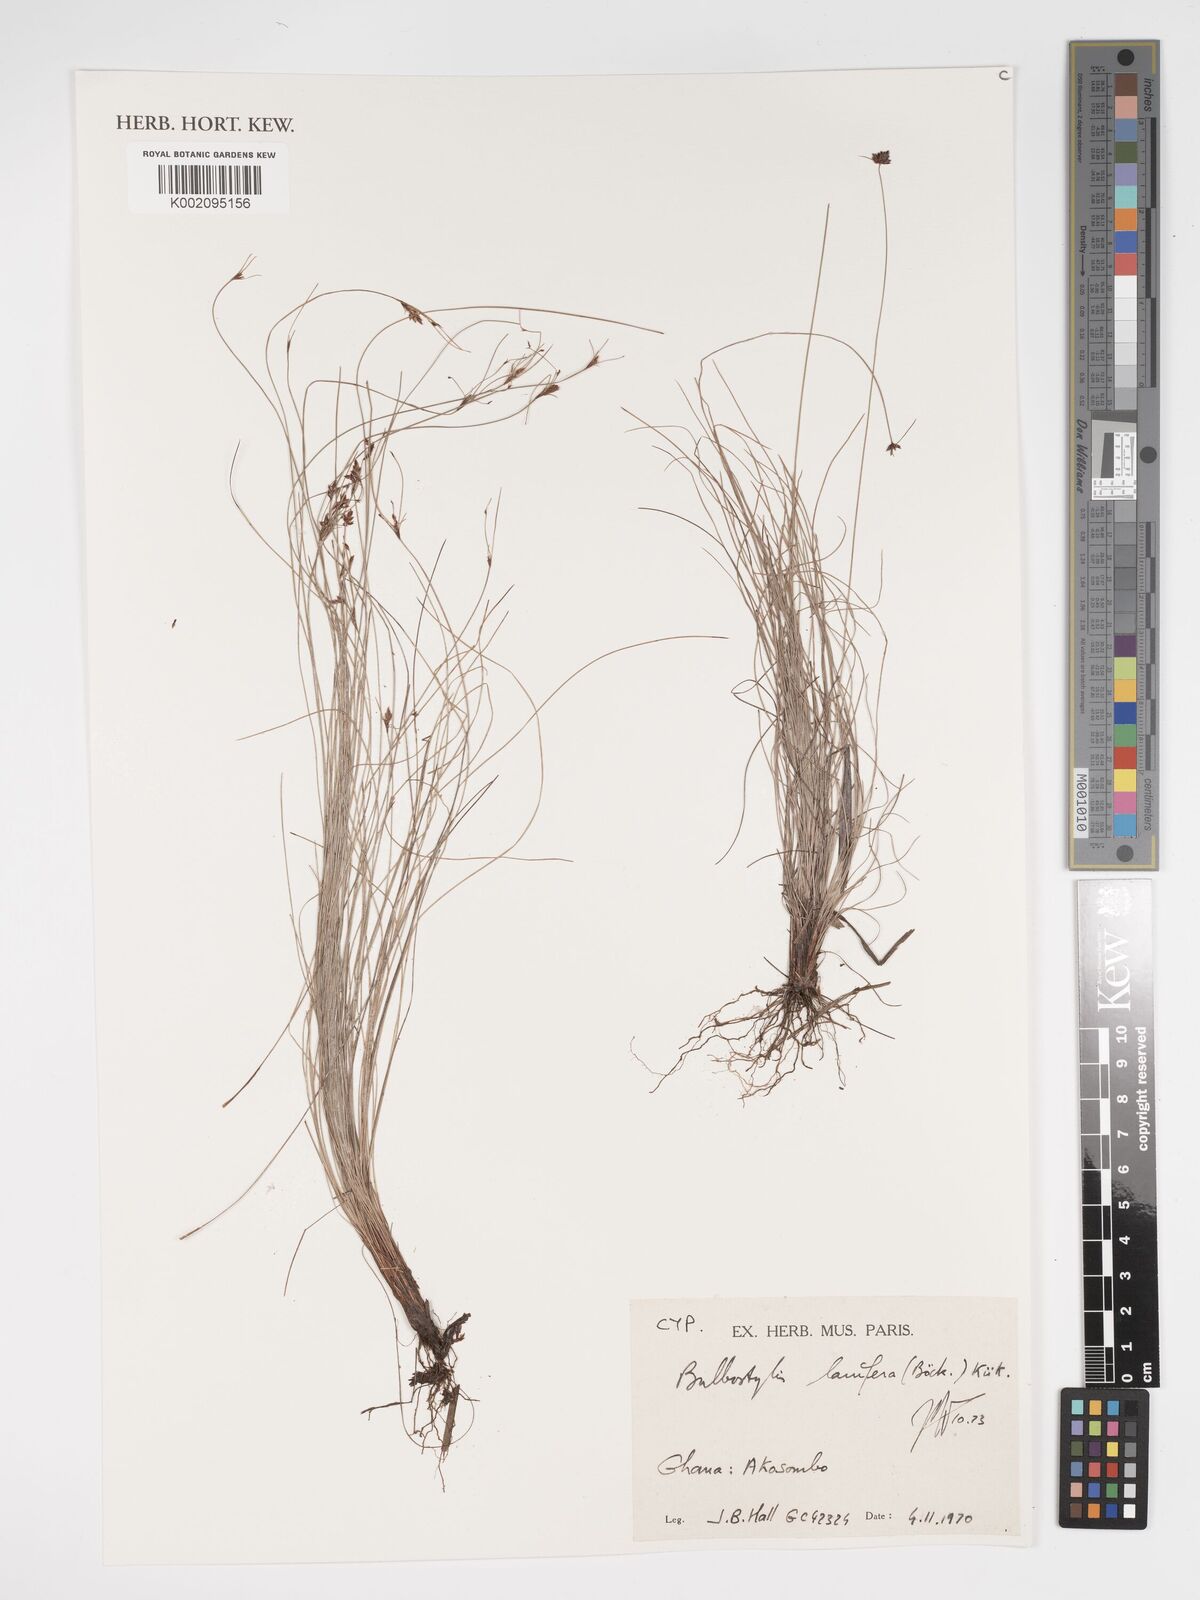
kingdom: Plantae
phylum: Tracheophyta
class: Liliopsida
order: Poales
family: Cyperaceae
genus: Bulbostylis
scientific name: Bulbostylis lanifera
